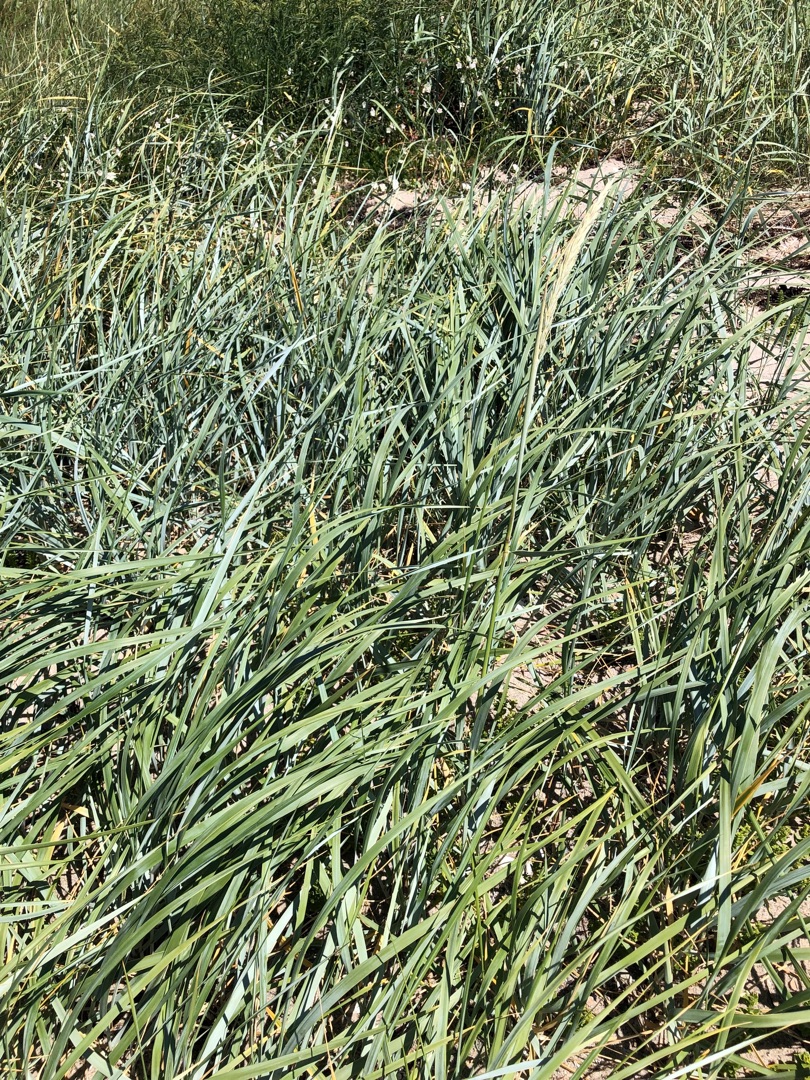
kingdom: Plantae
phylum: Tracheophyta
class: Liliopsida
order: Poales
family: Poaceae
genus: Leymus
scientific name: Leymus arenarius
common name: Marehalm
